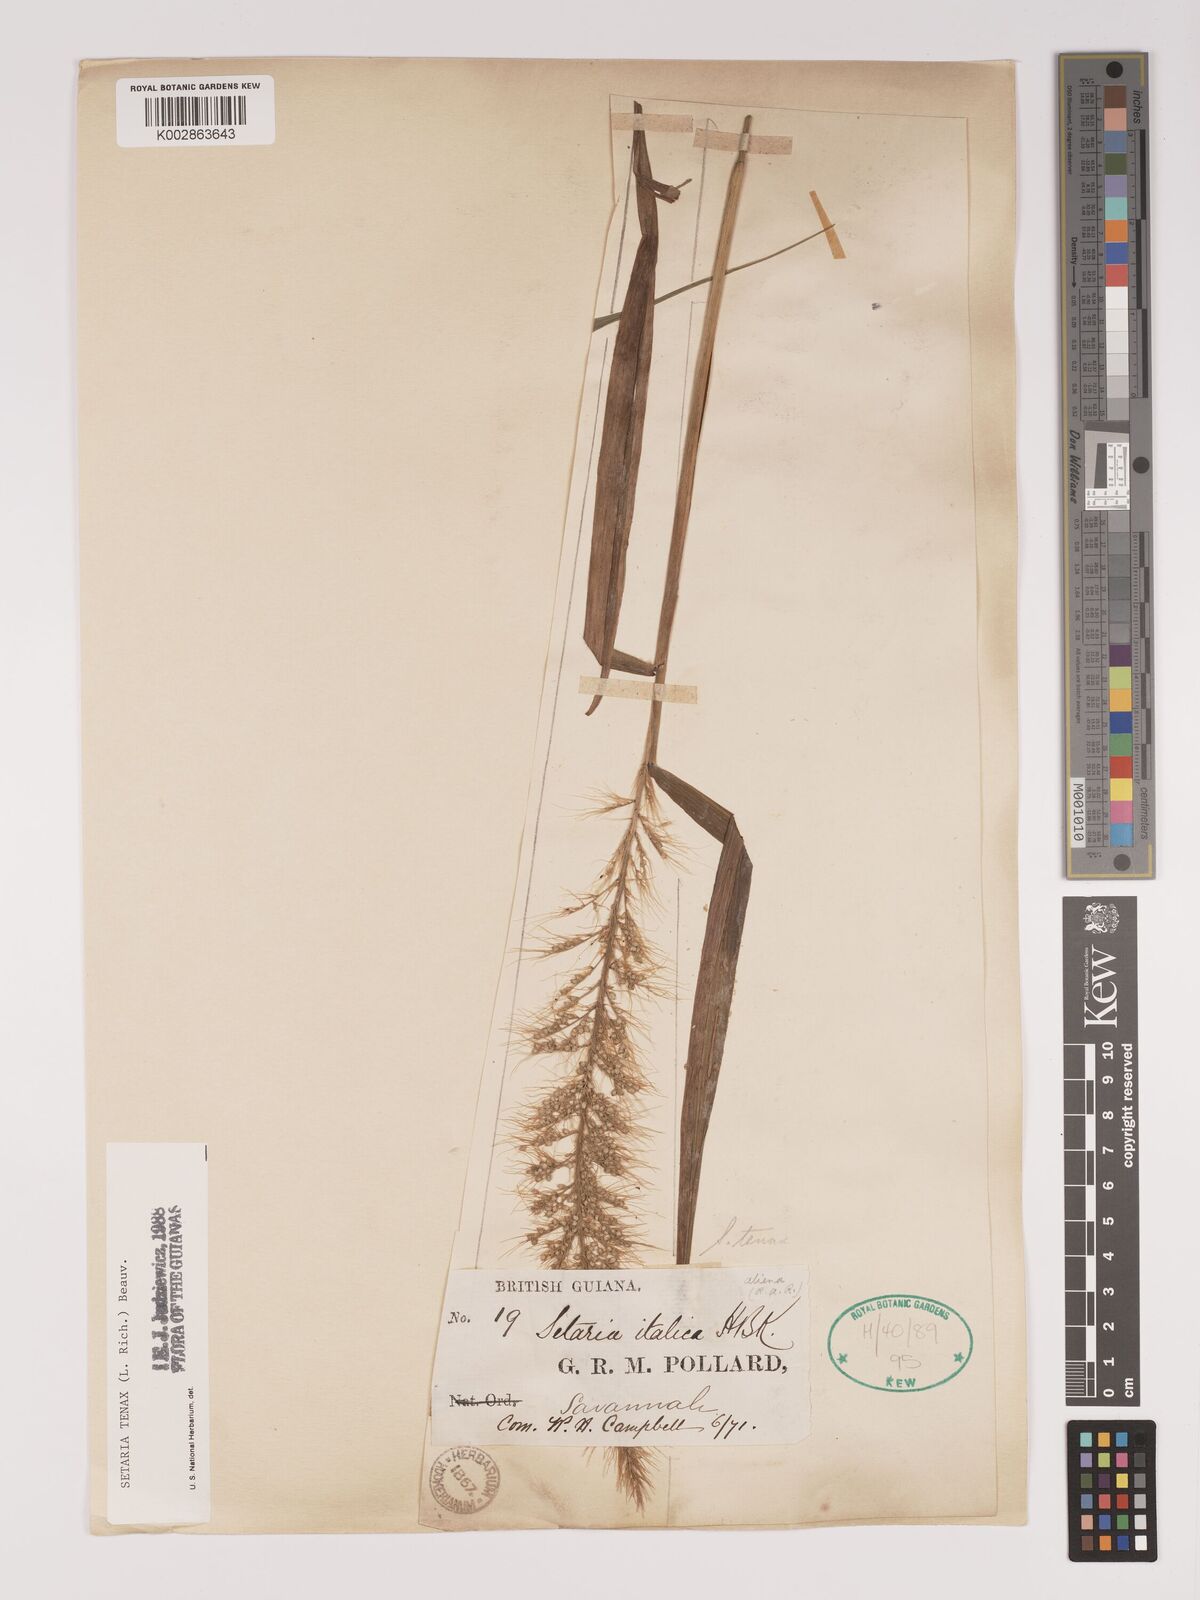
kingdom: Plantae
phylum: Tracheophyta
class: Liliopsida
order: Poales
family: Poaceae
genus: Setaria
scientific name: Setaria tenax
